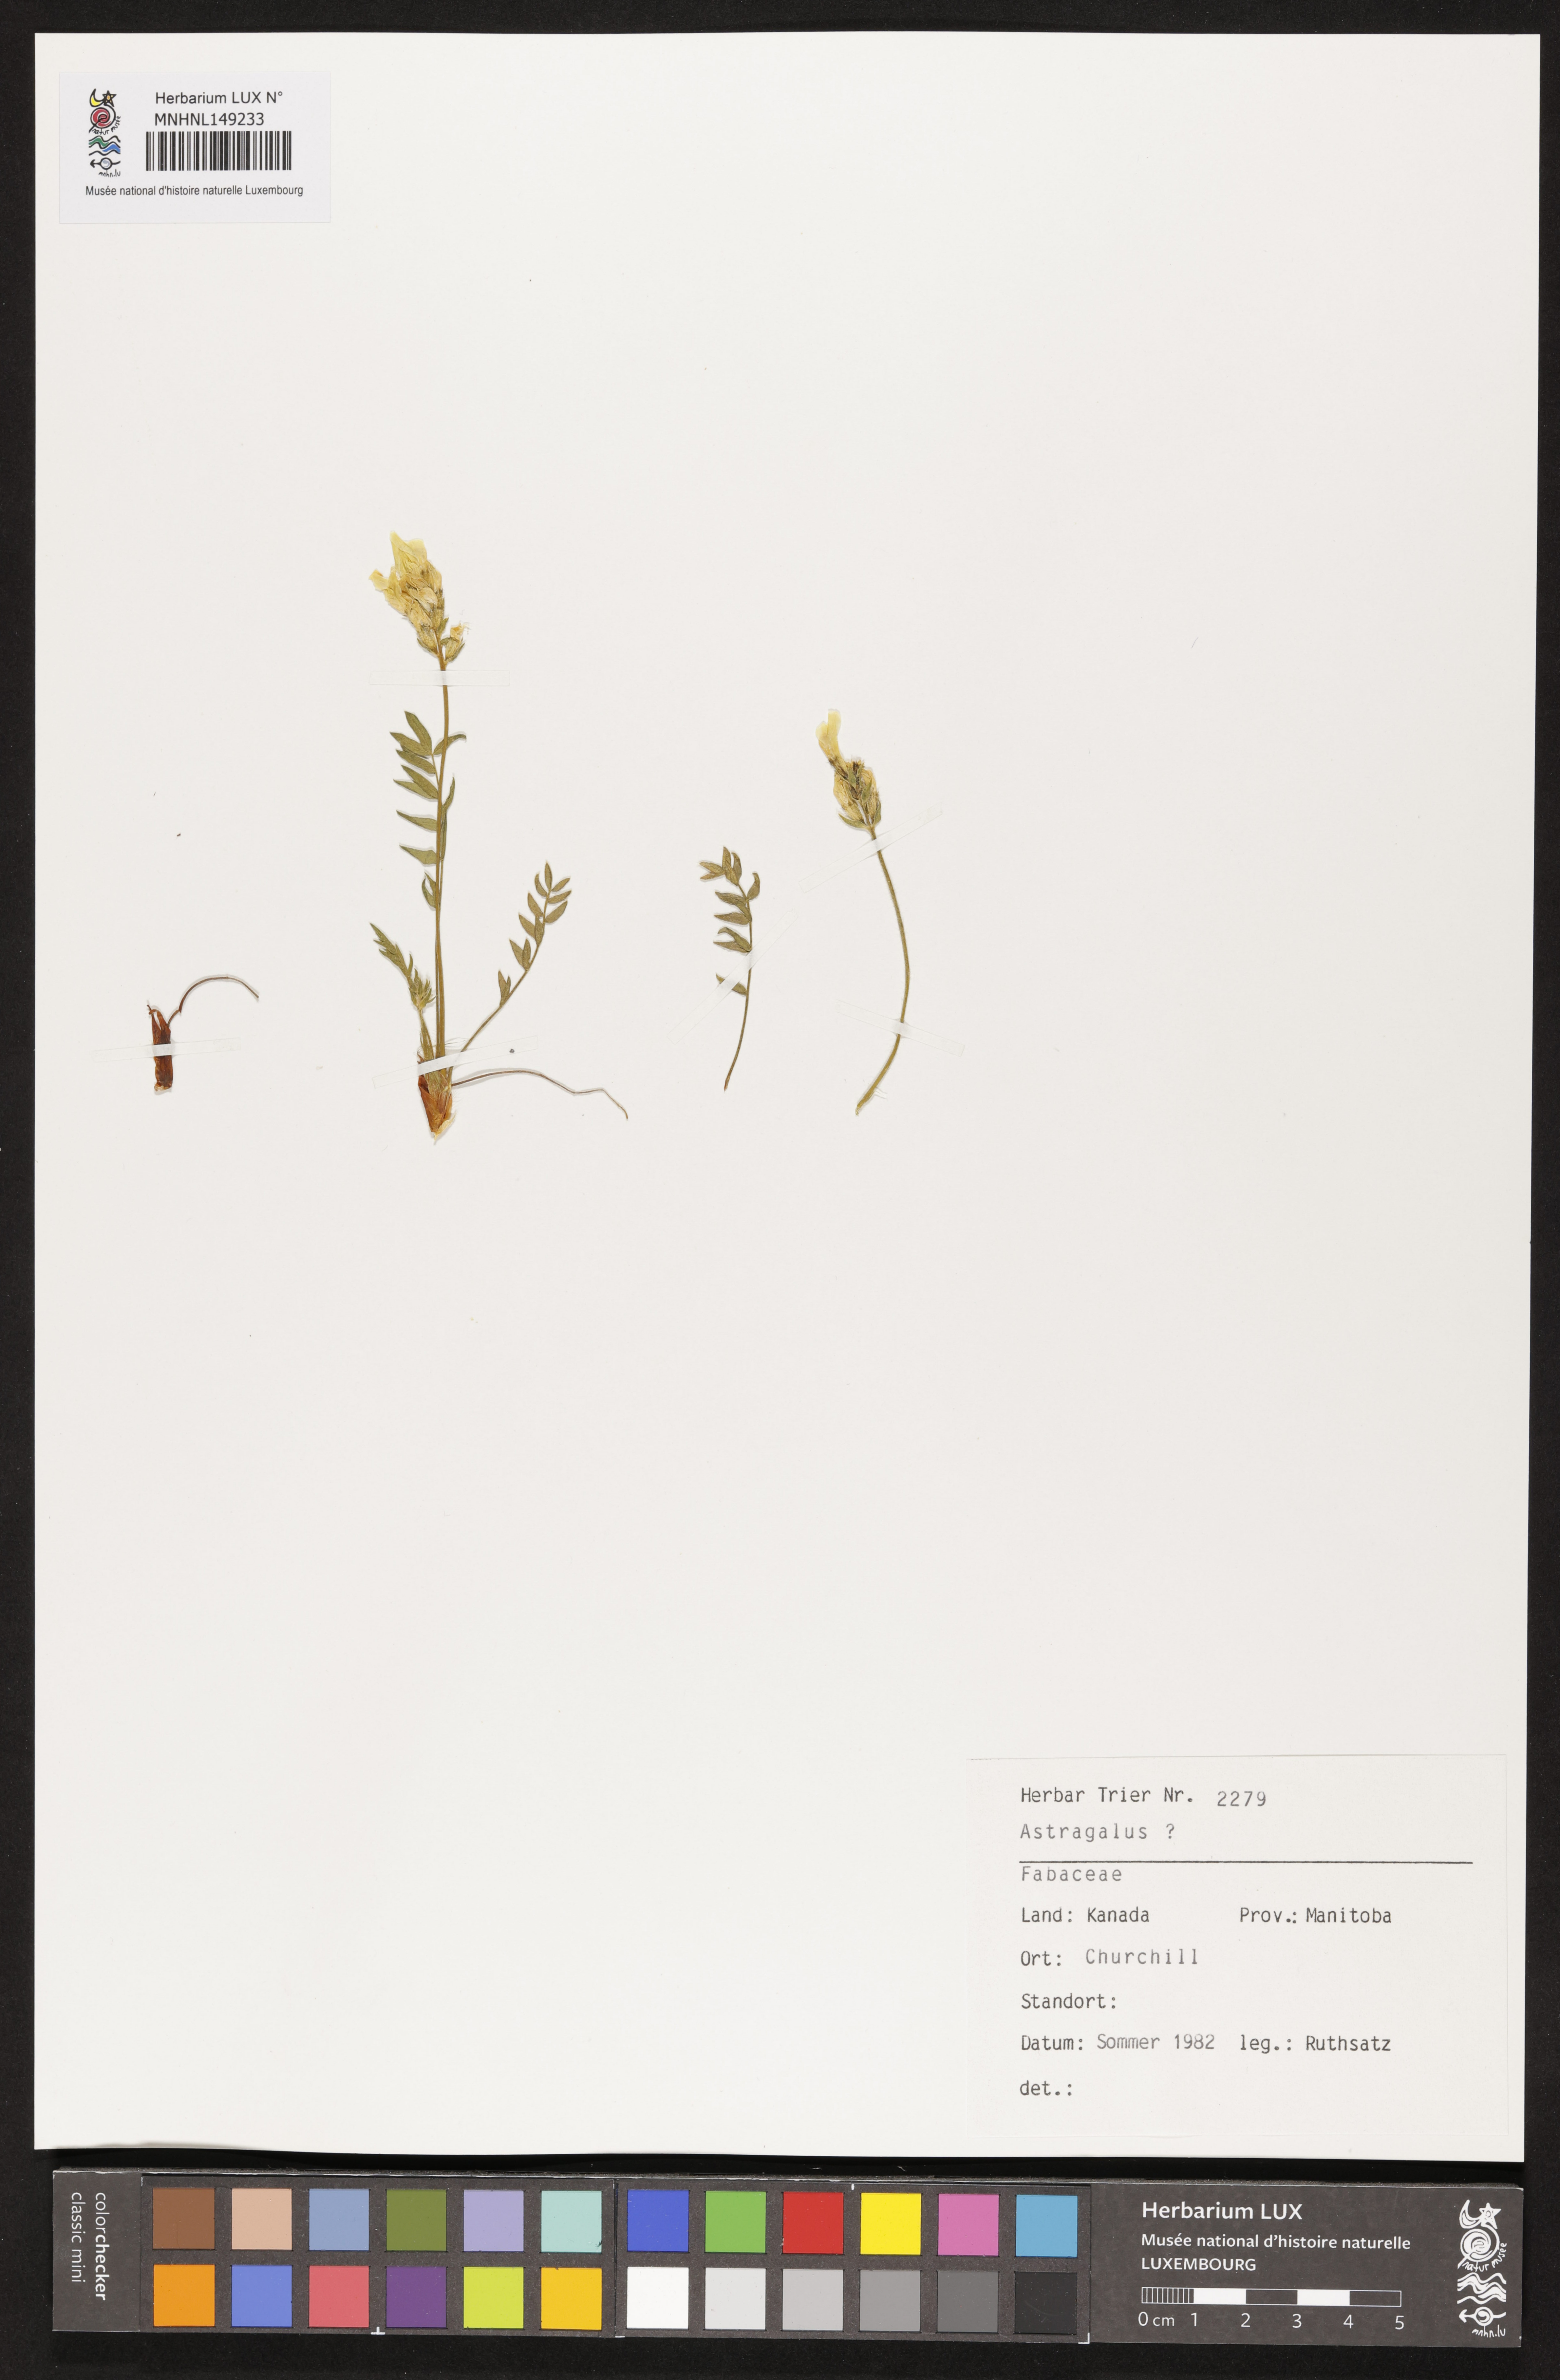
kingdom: Plantae
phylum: Tracheophyta
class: Magnoliopsida
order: Fabales
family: Fabaceae
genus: Astragalus
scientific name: Astragalus
